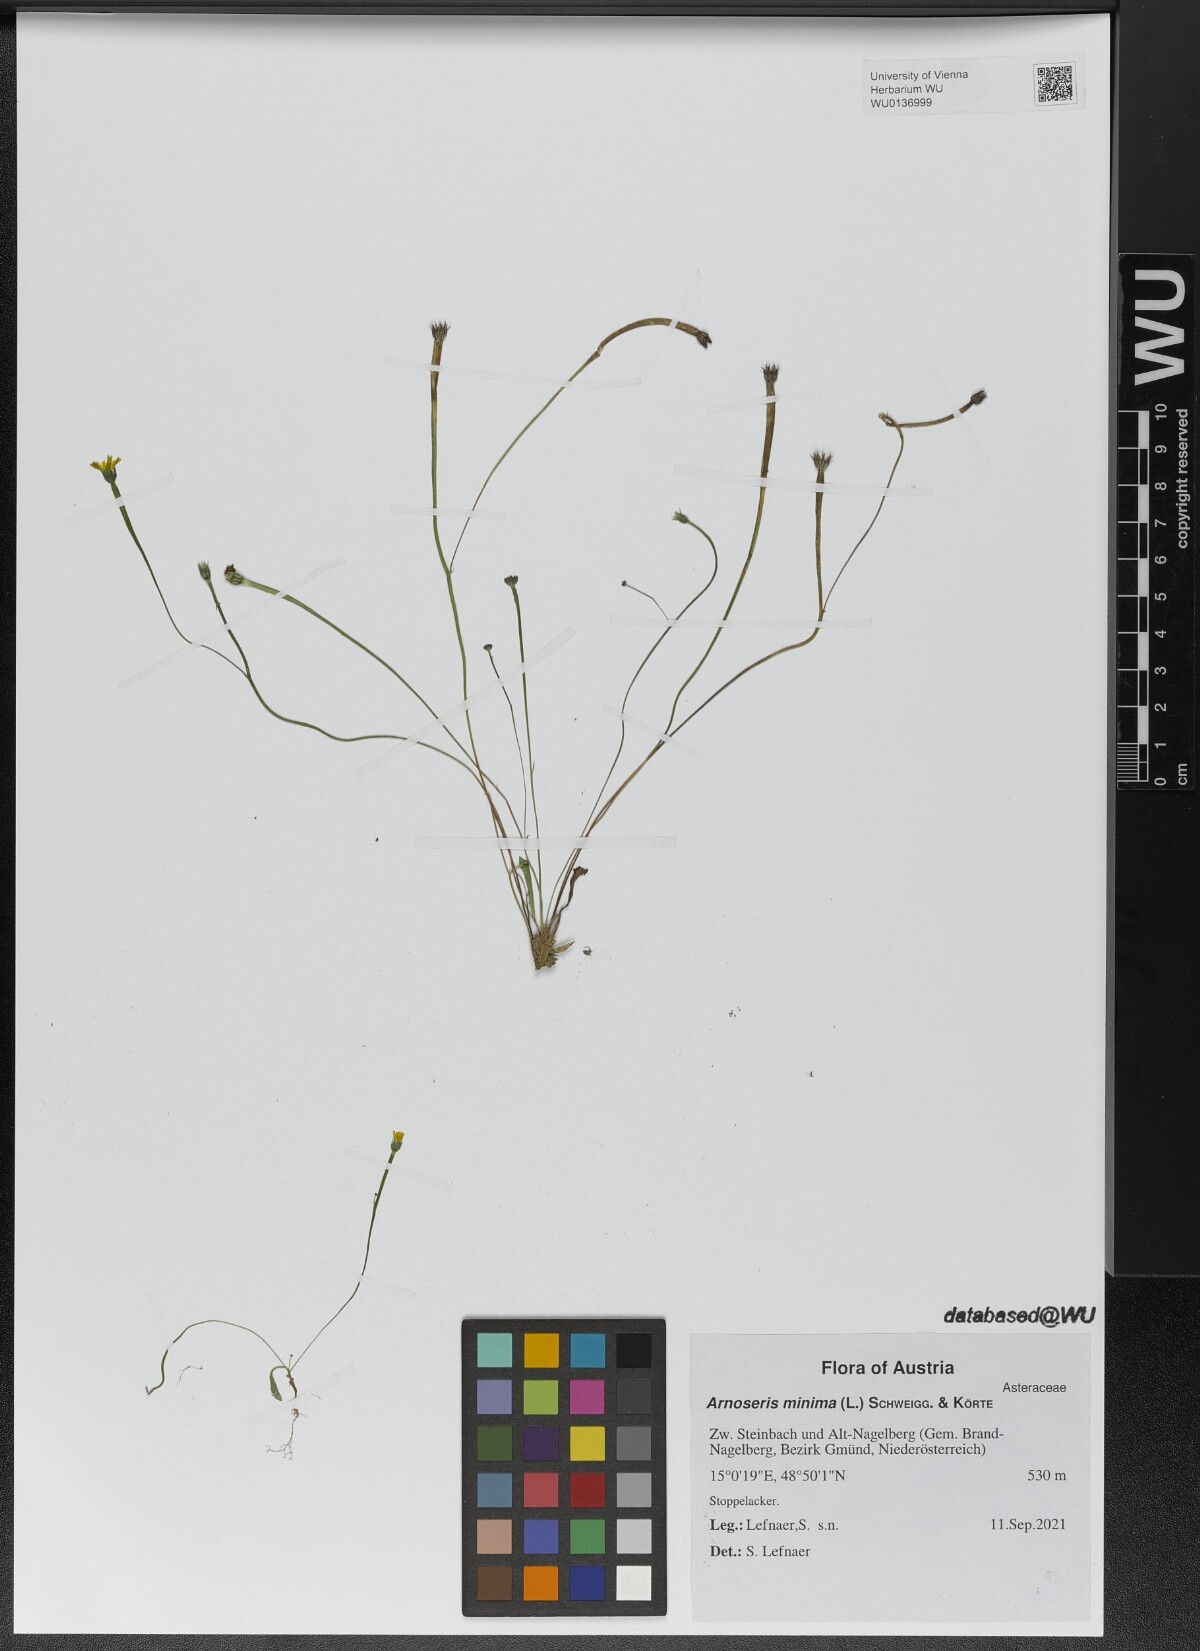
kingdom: Plantae
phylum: Tracheophyta
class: Magnoliopsida
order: Asterales
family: Asteraceae
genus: Arnoseris
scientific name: Arnoseris minima
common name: Lamb's succory
